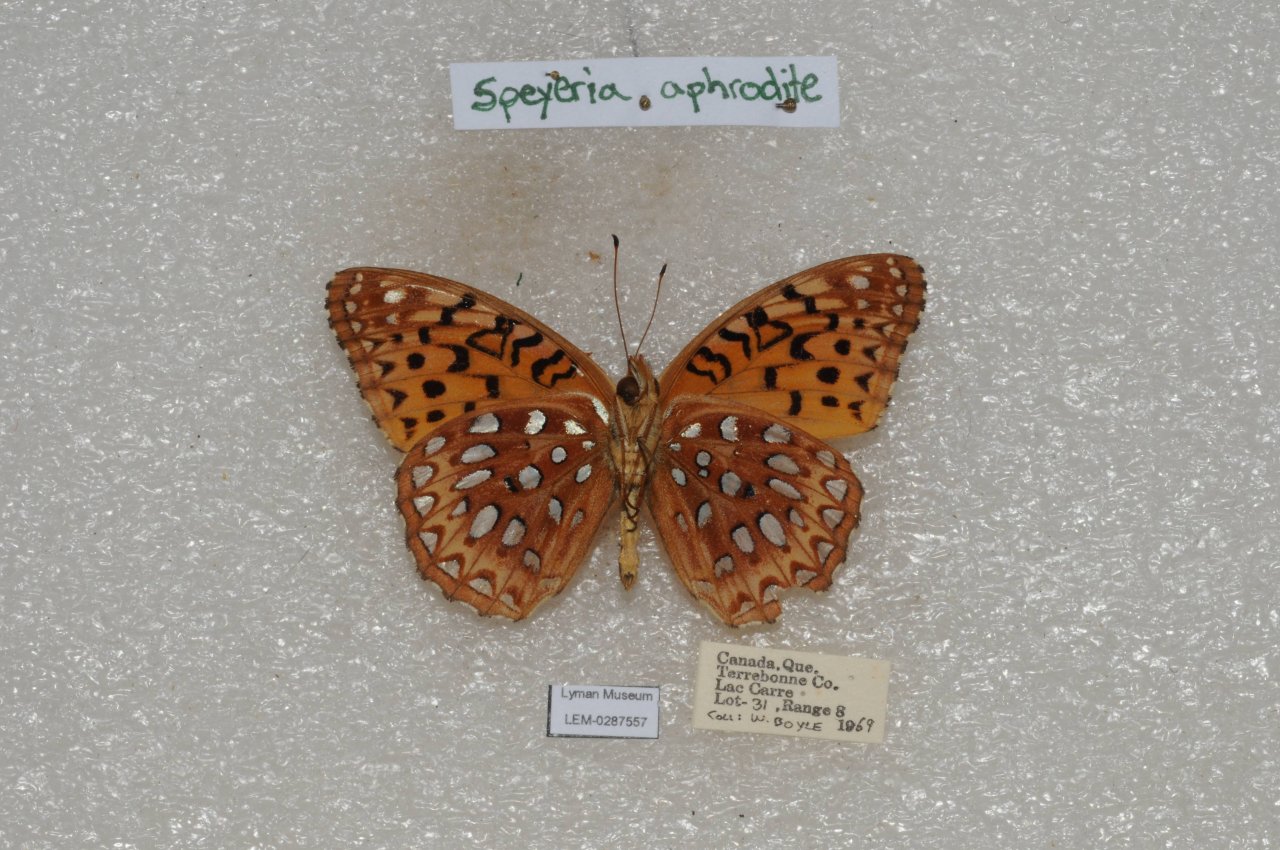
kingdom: Animalia
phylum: Arthropoda
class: Insecta
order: Lepidoptera
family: Nymphalidae
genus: Speyeria
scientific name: Speyeria aphrodite
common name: Aphrodite Fritillary
